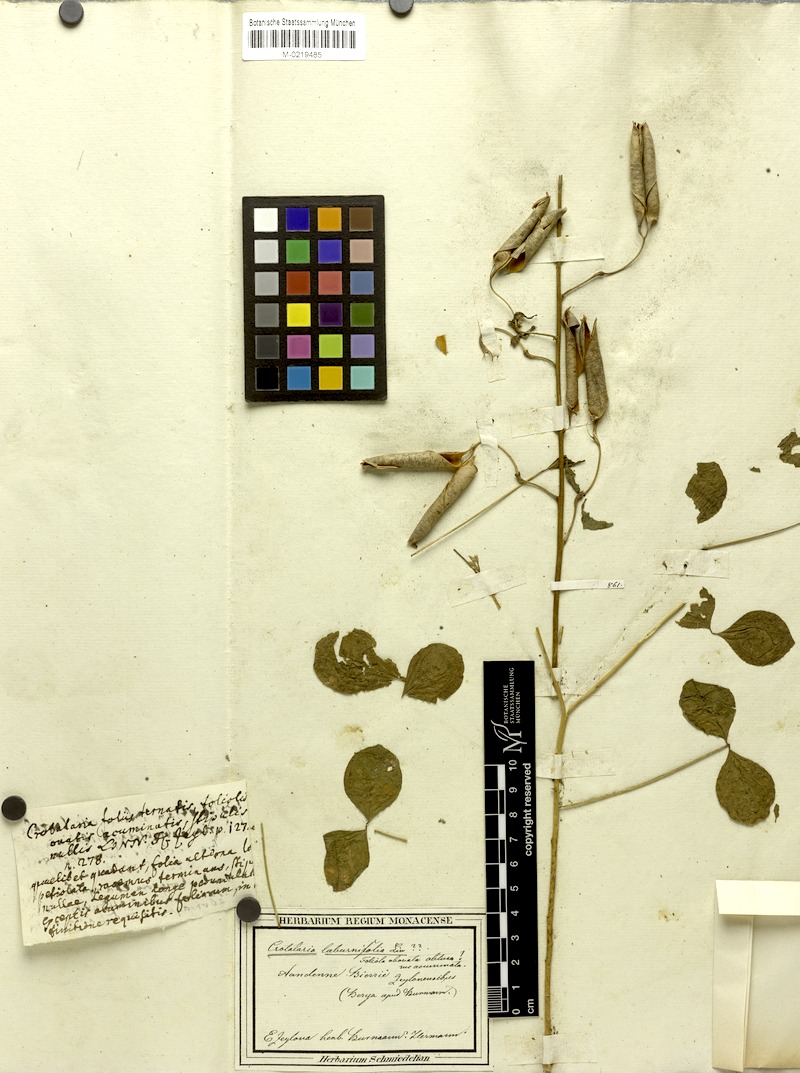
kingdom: Plantae
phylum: Tracheophyta
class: Magnoliopsida
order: Fabales
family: Fabaceae
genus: Crotalaria
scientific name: Crotalaria laburnifolia
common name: Birdflower
